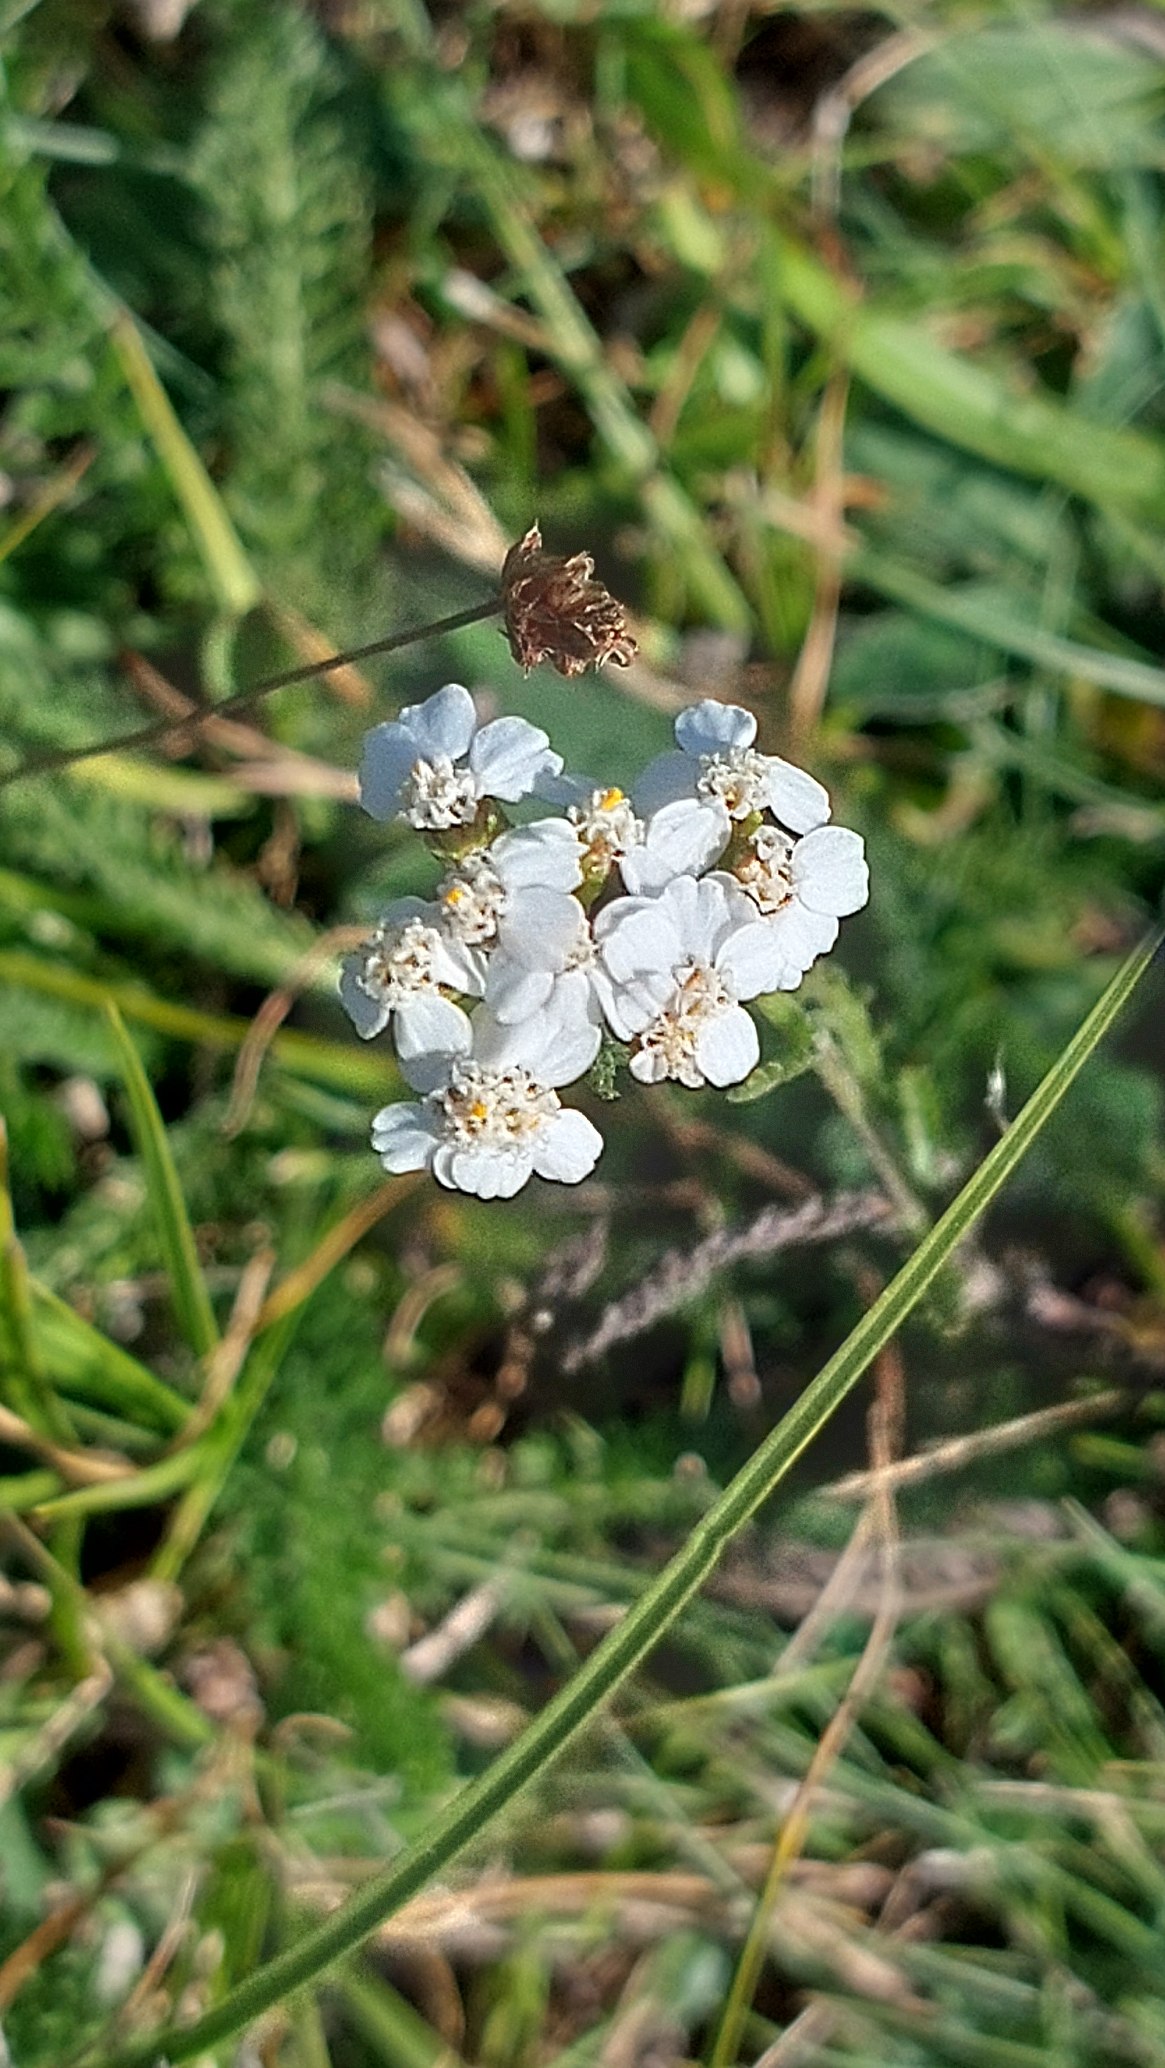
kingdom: Plantae
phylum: Tracheophyta
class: Magnoliopsida
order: Asterales
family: Asteraceae
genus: Achillea
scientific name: Achillea millefolium
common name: Almindelig røllike
